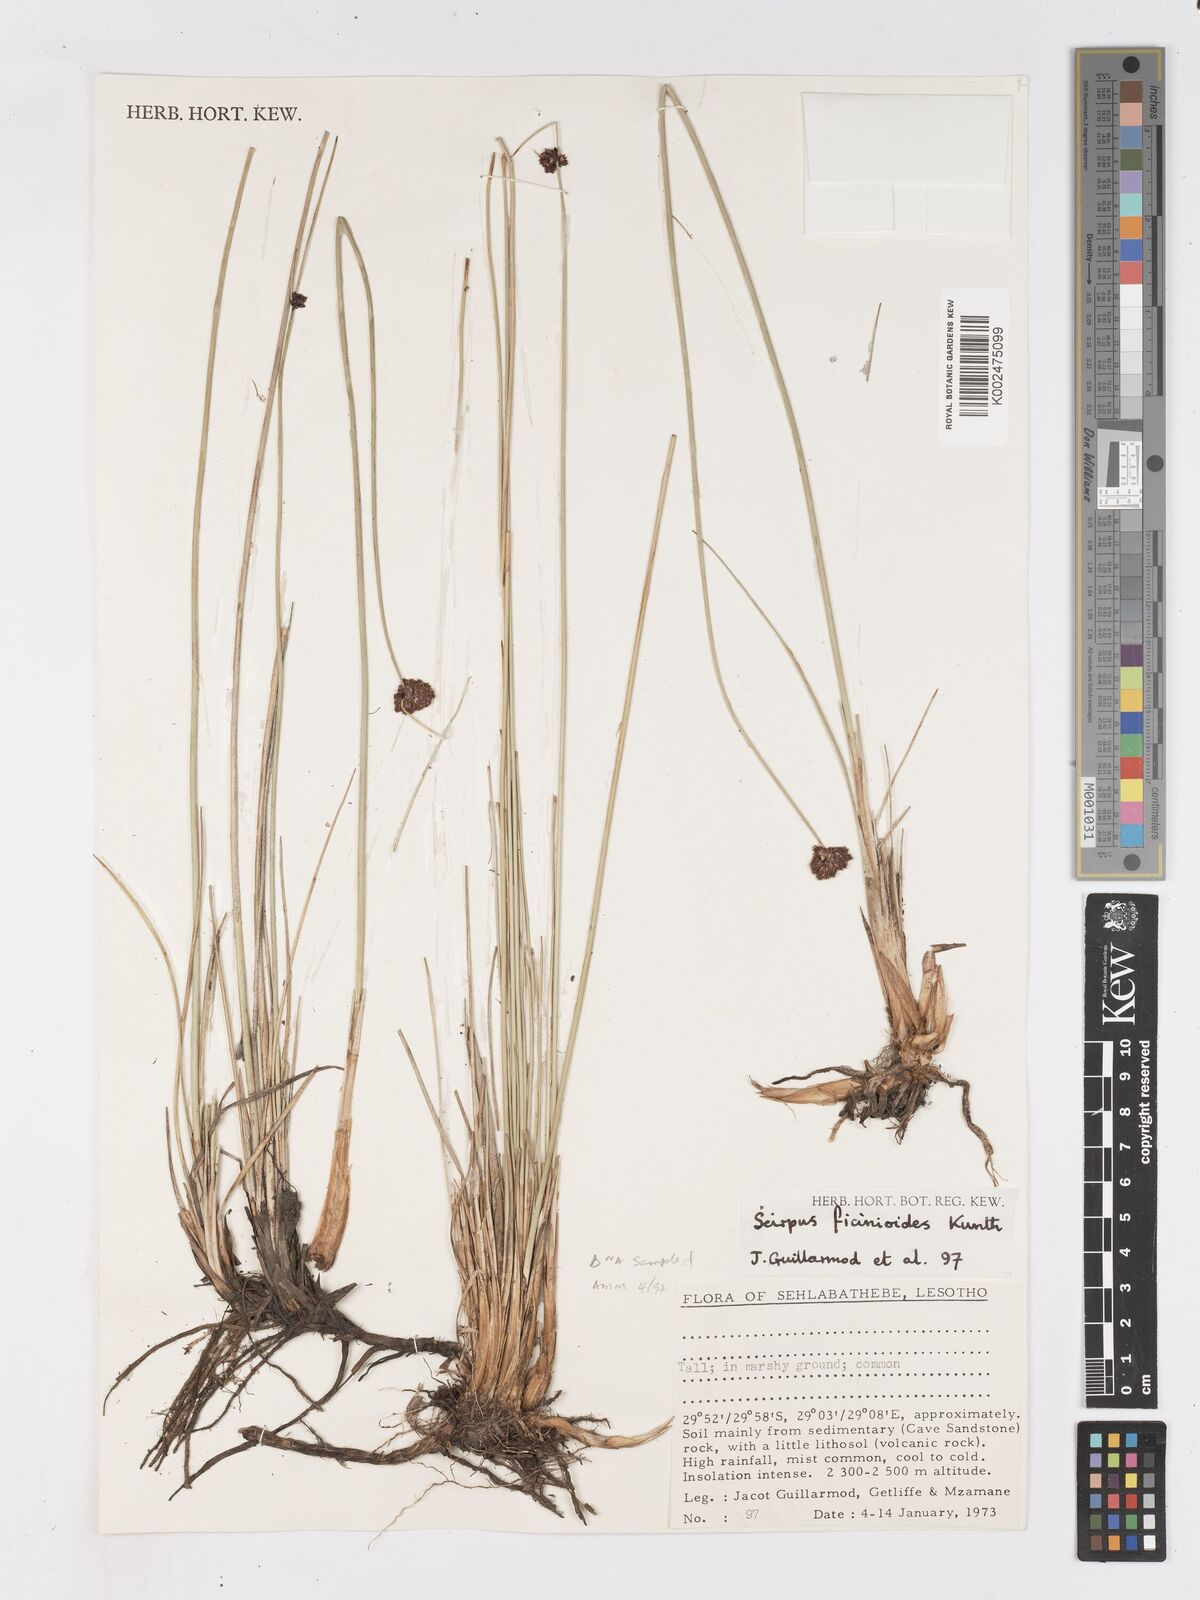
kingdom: Plantae
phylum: Tracheophyta
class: Liliopsida
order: Poales
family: Cyperaceae
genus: Ficinia
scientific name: Ficinia
